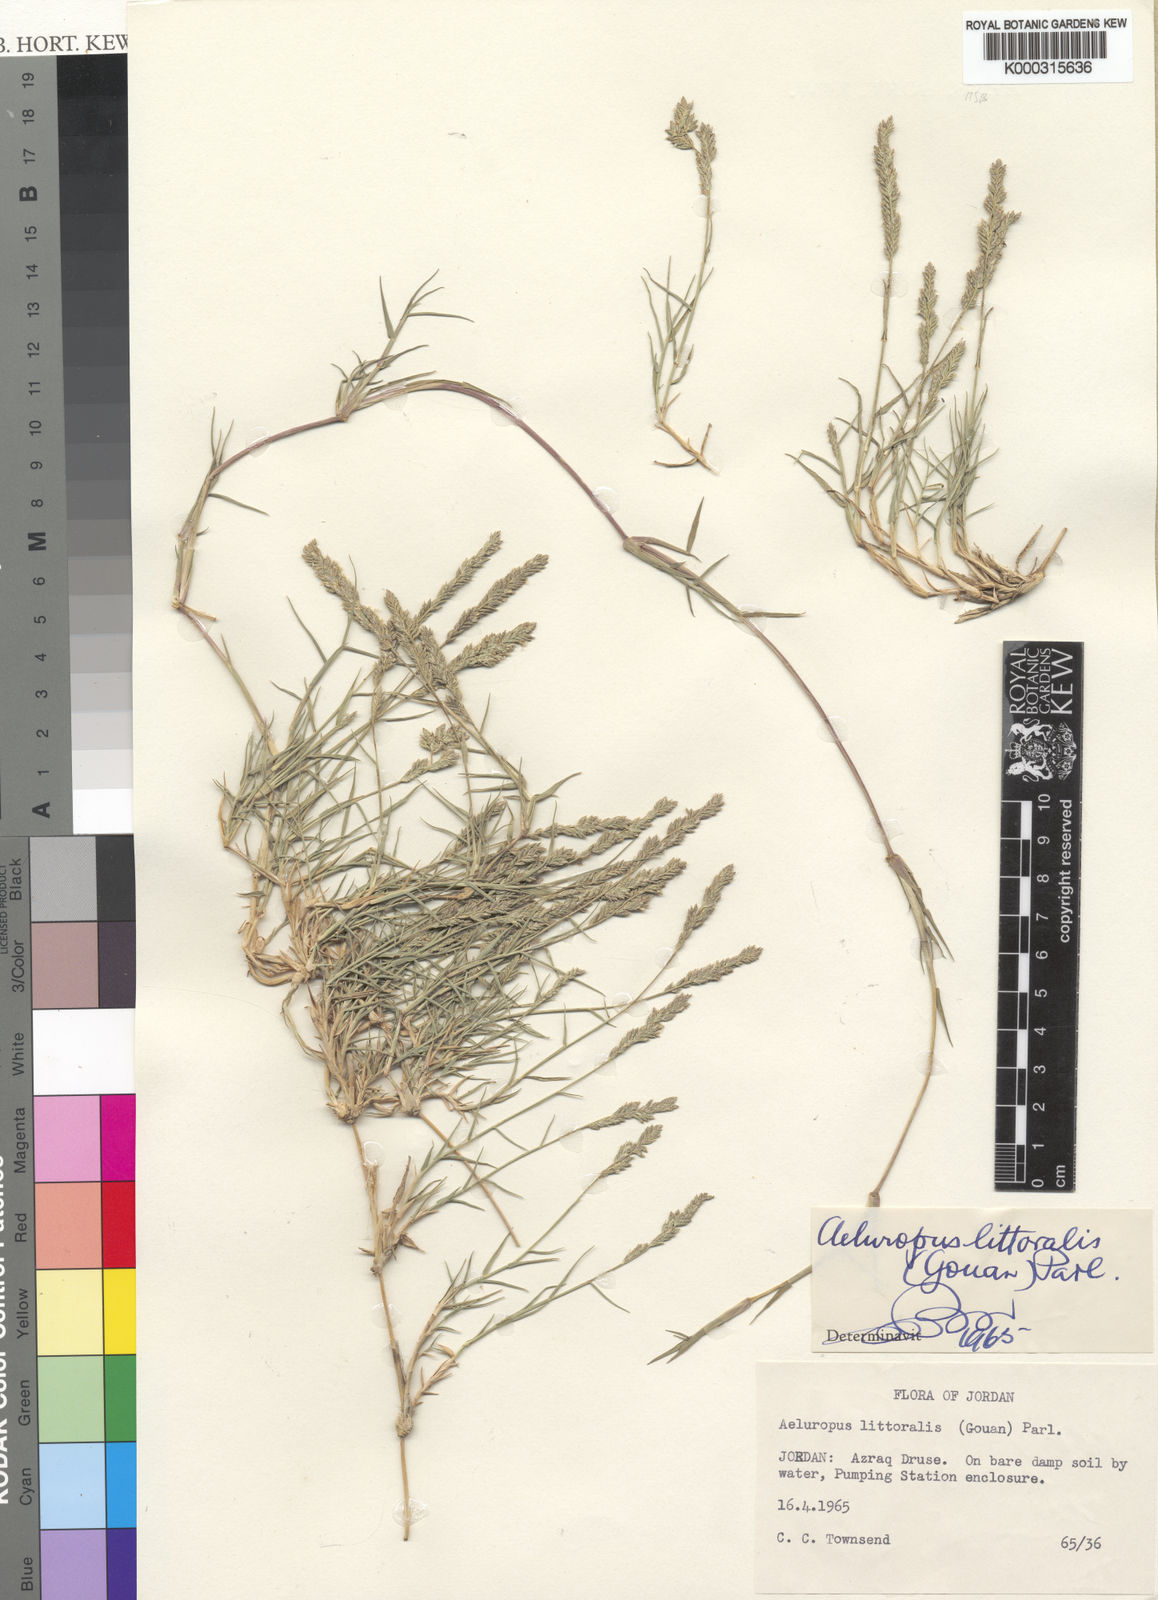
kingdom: Plantae
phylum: Tracheophyta
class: Liliopsida
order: Poales
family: Poaceae
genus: Aeluropus
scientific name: Aeluropus littoralis
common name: Indian walnut
